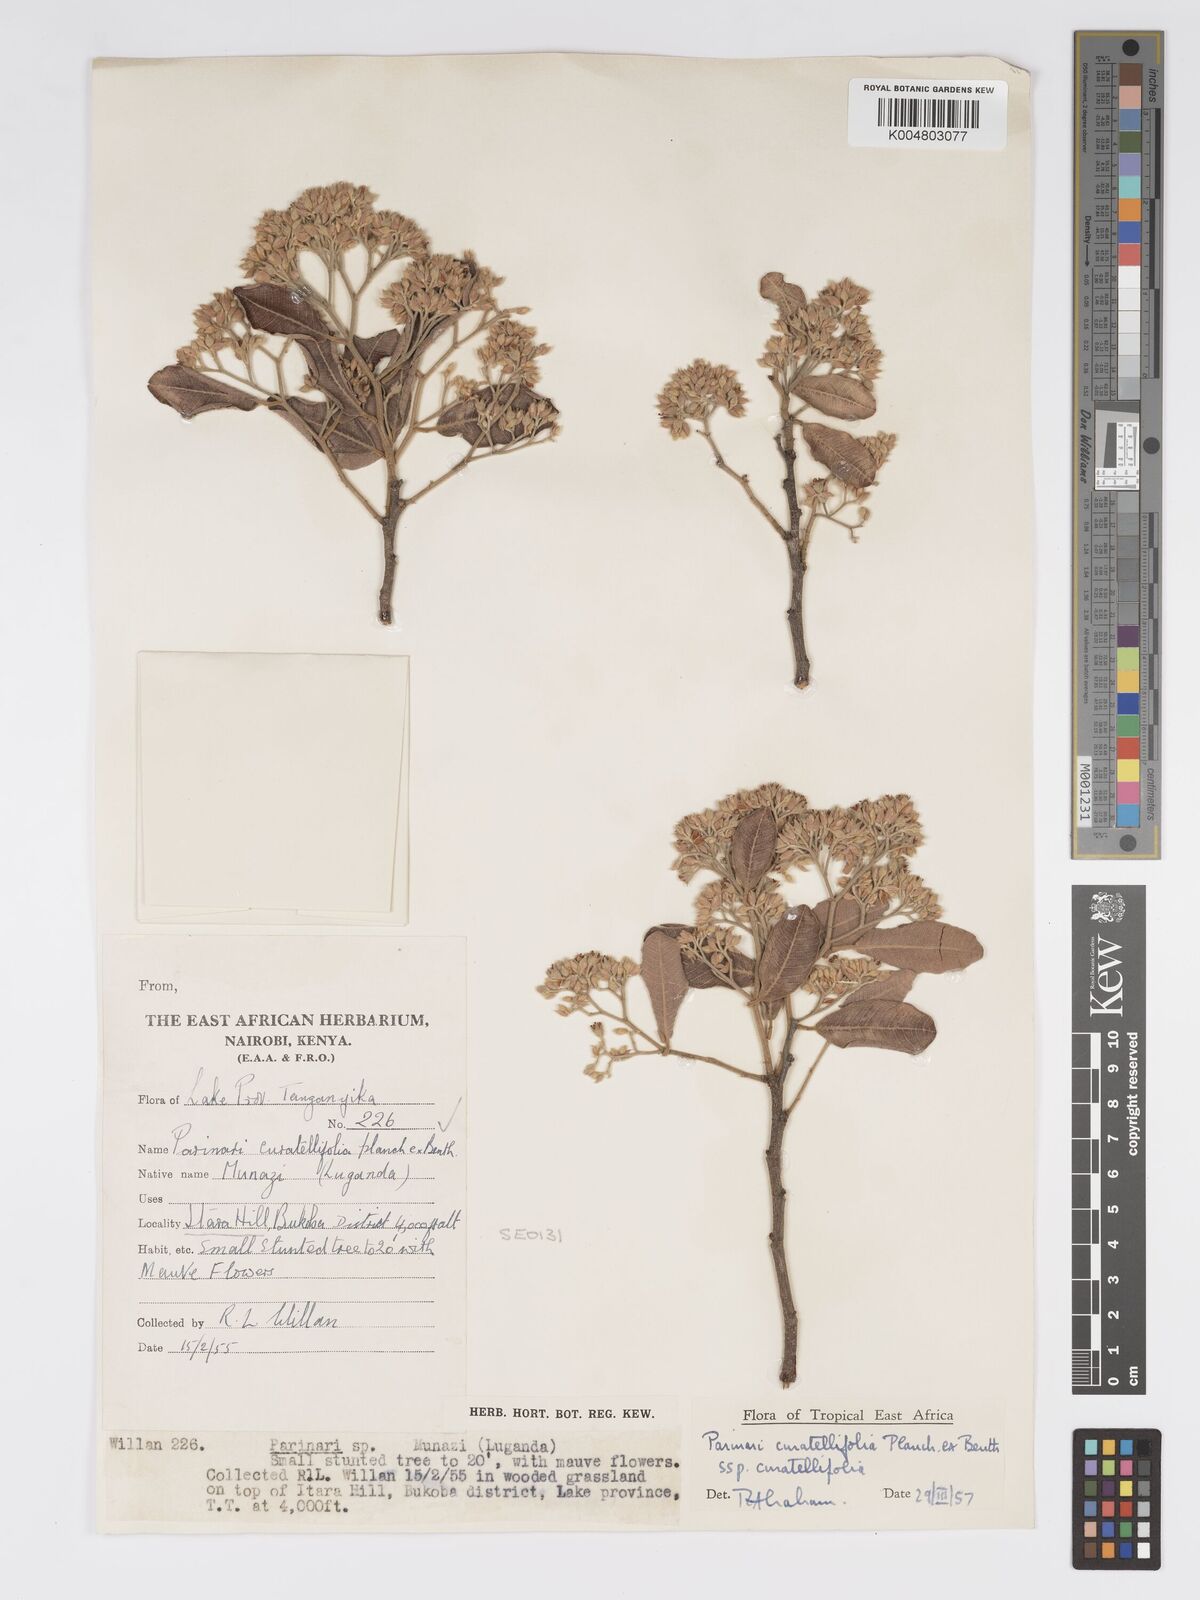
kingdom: Plantae
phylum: Tracheophyta
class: Magnoliopsida
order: Malpighiales
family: Chrysobalanaceae
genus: Parinari
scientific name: Parinari curatellifolia
